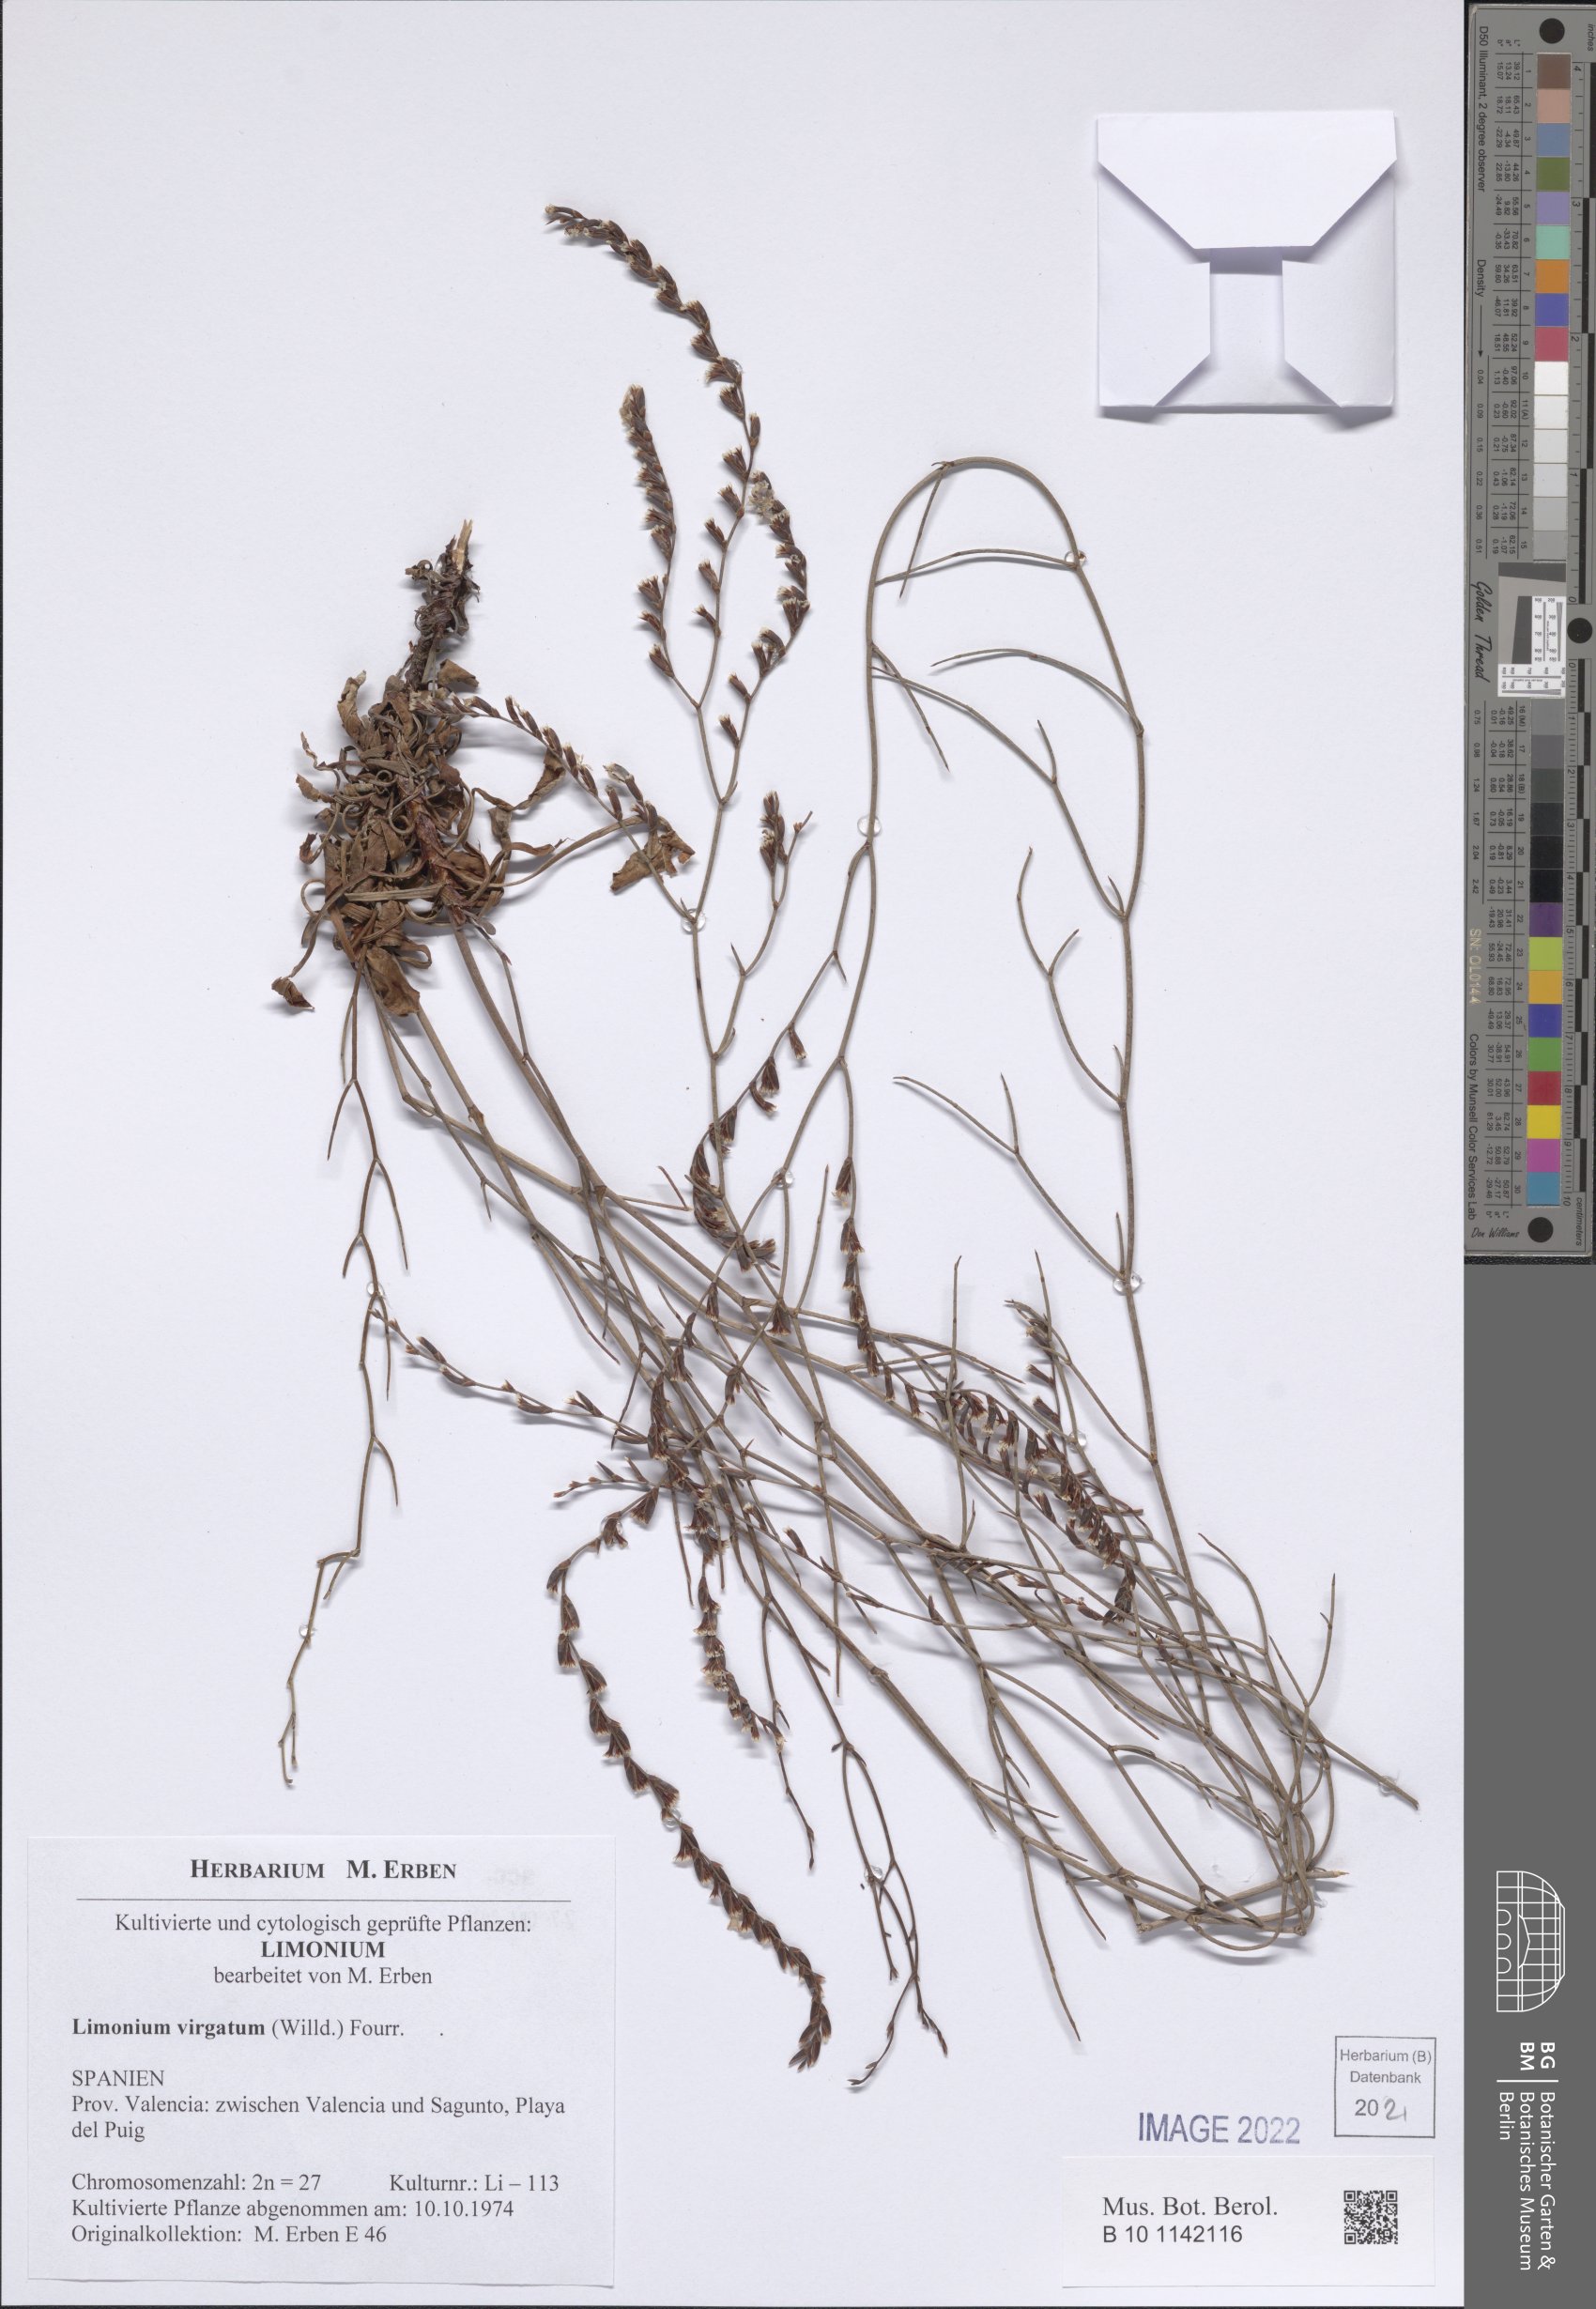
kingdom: Plantae
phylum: Tracheophyta
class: Magnoliopsida
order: Caryophyllales
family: Plumbaginaceae
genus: Limonium
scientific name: Limonium virgatum
